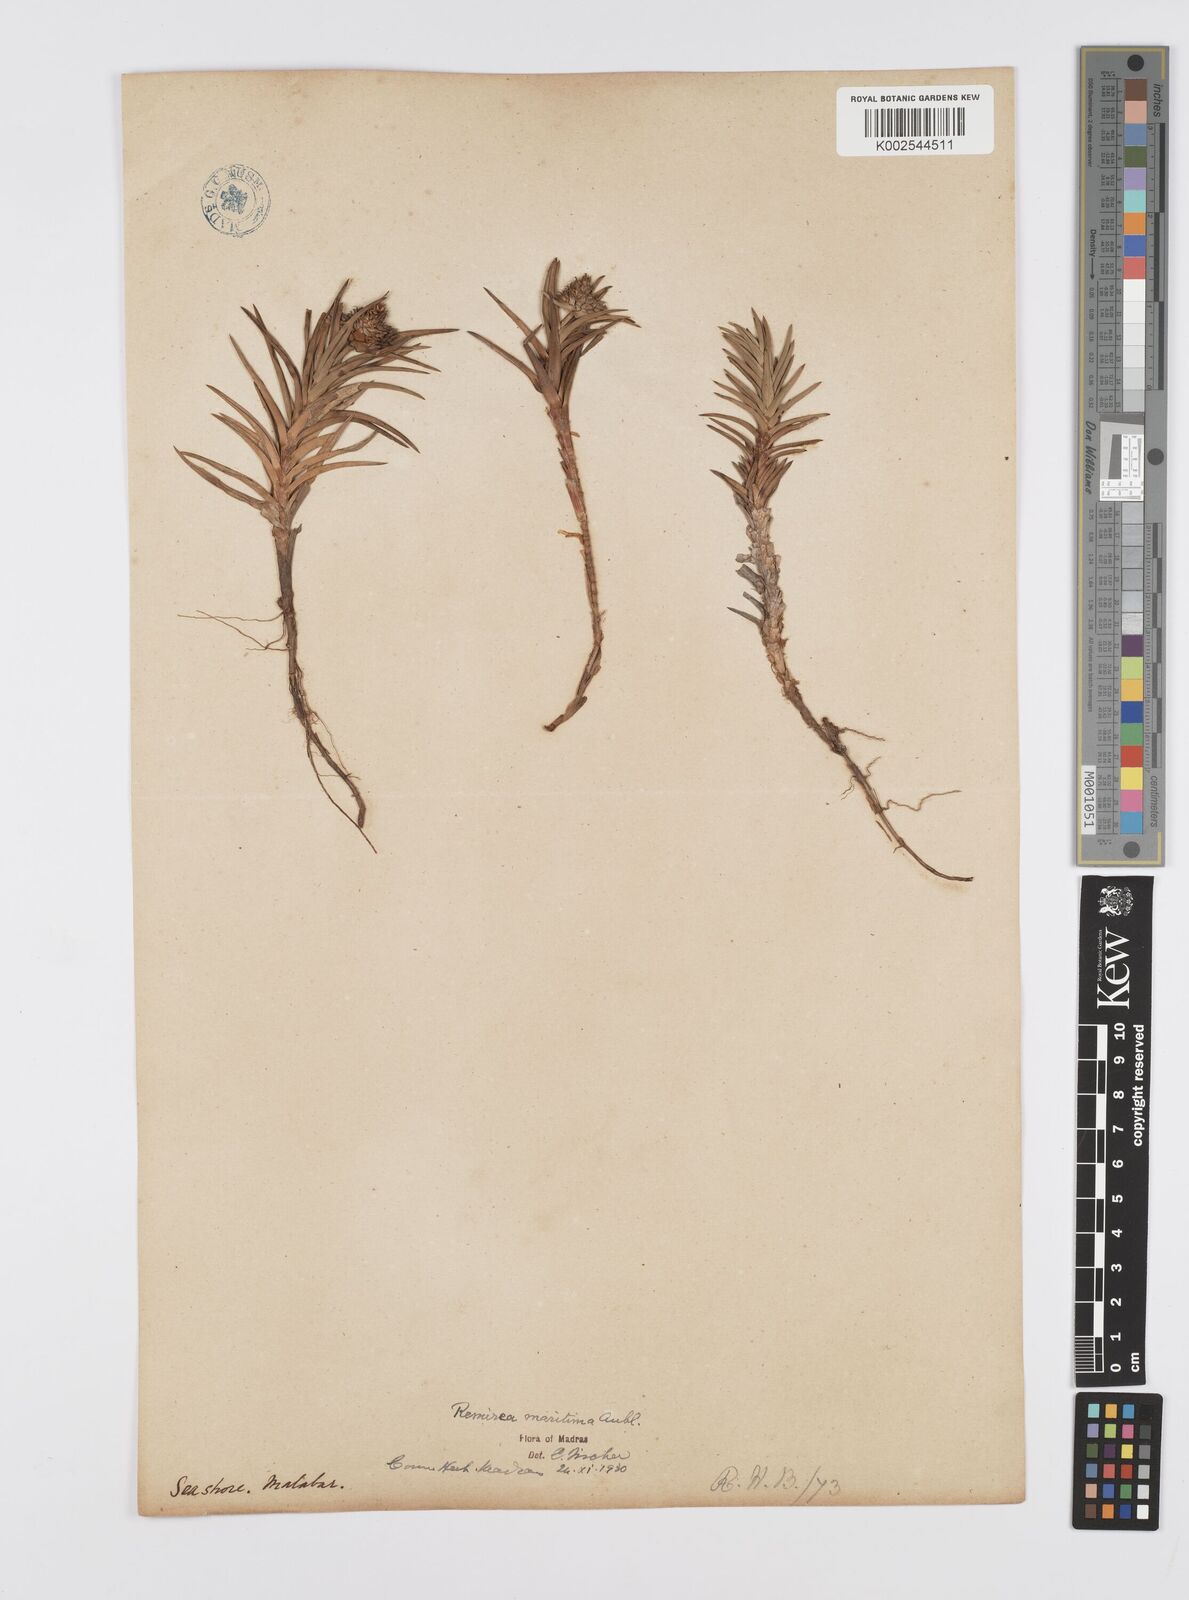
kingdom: Plantae
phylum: Tracheophyta
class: Liliopsida
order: Poales
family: Cyperaceae
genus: Cyperus
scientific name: Cyperus
